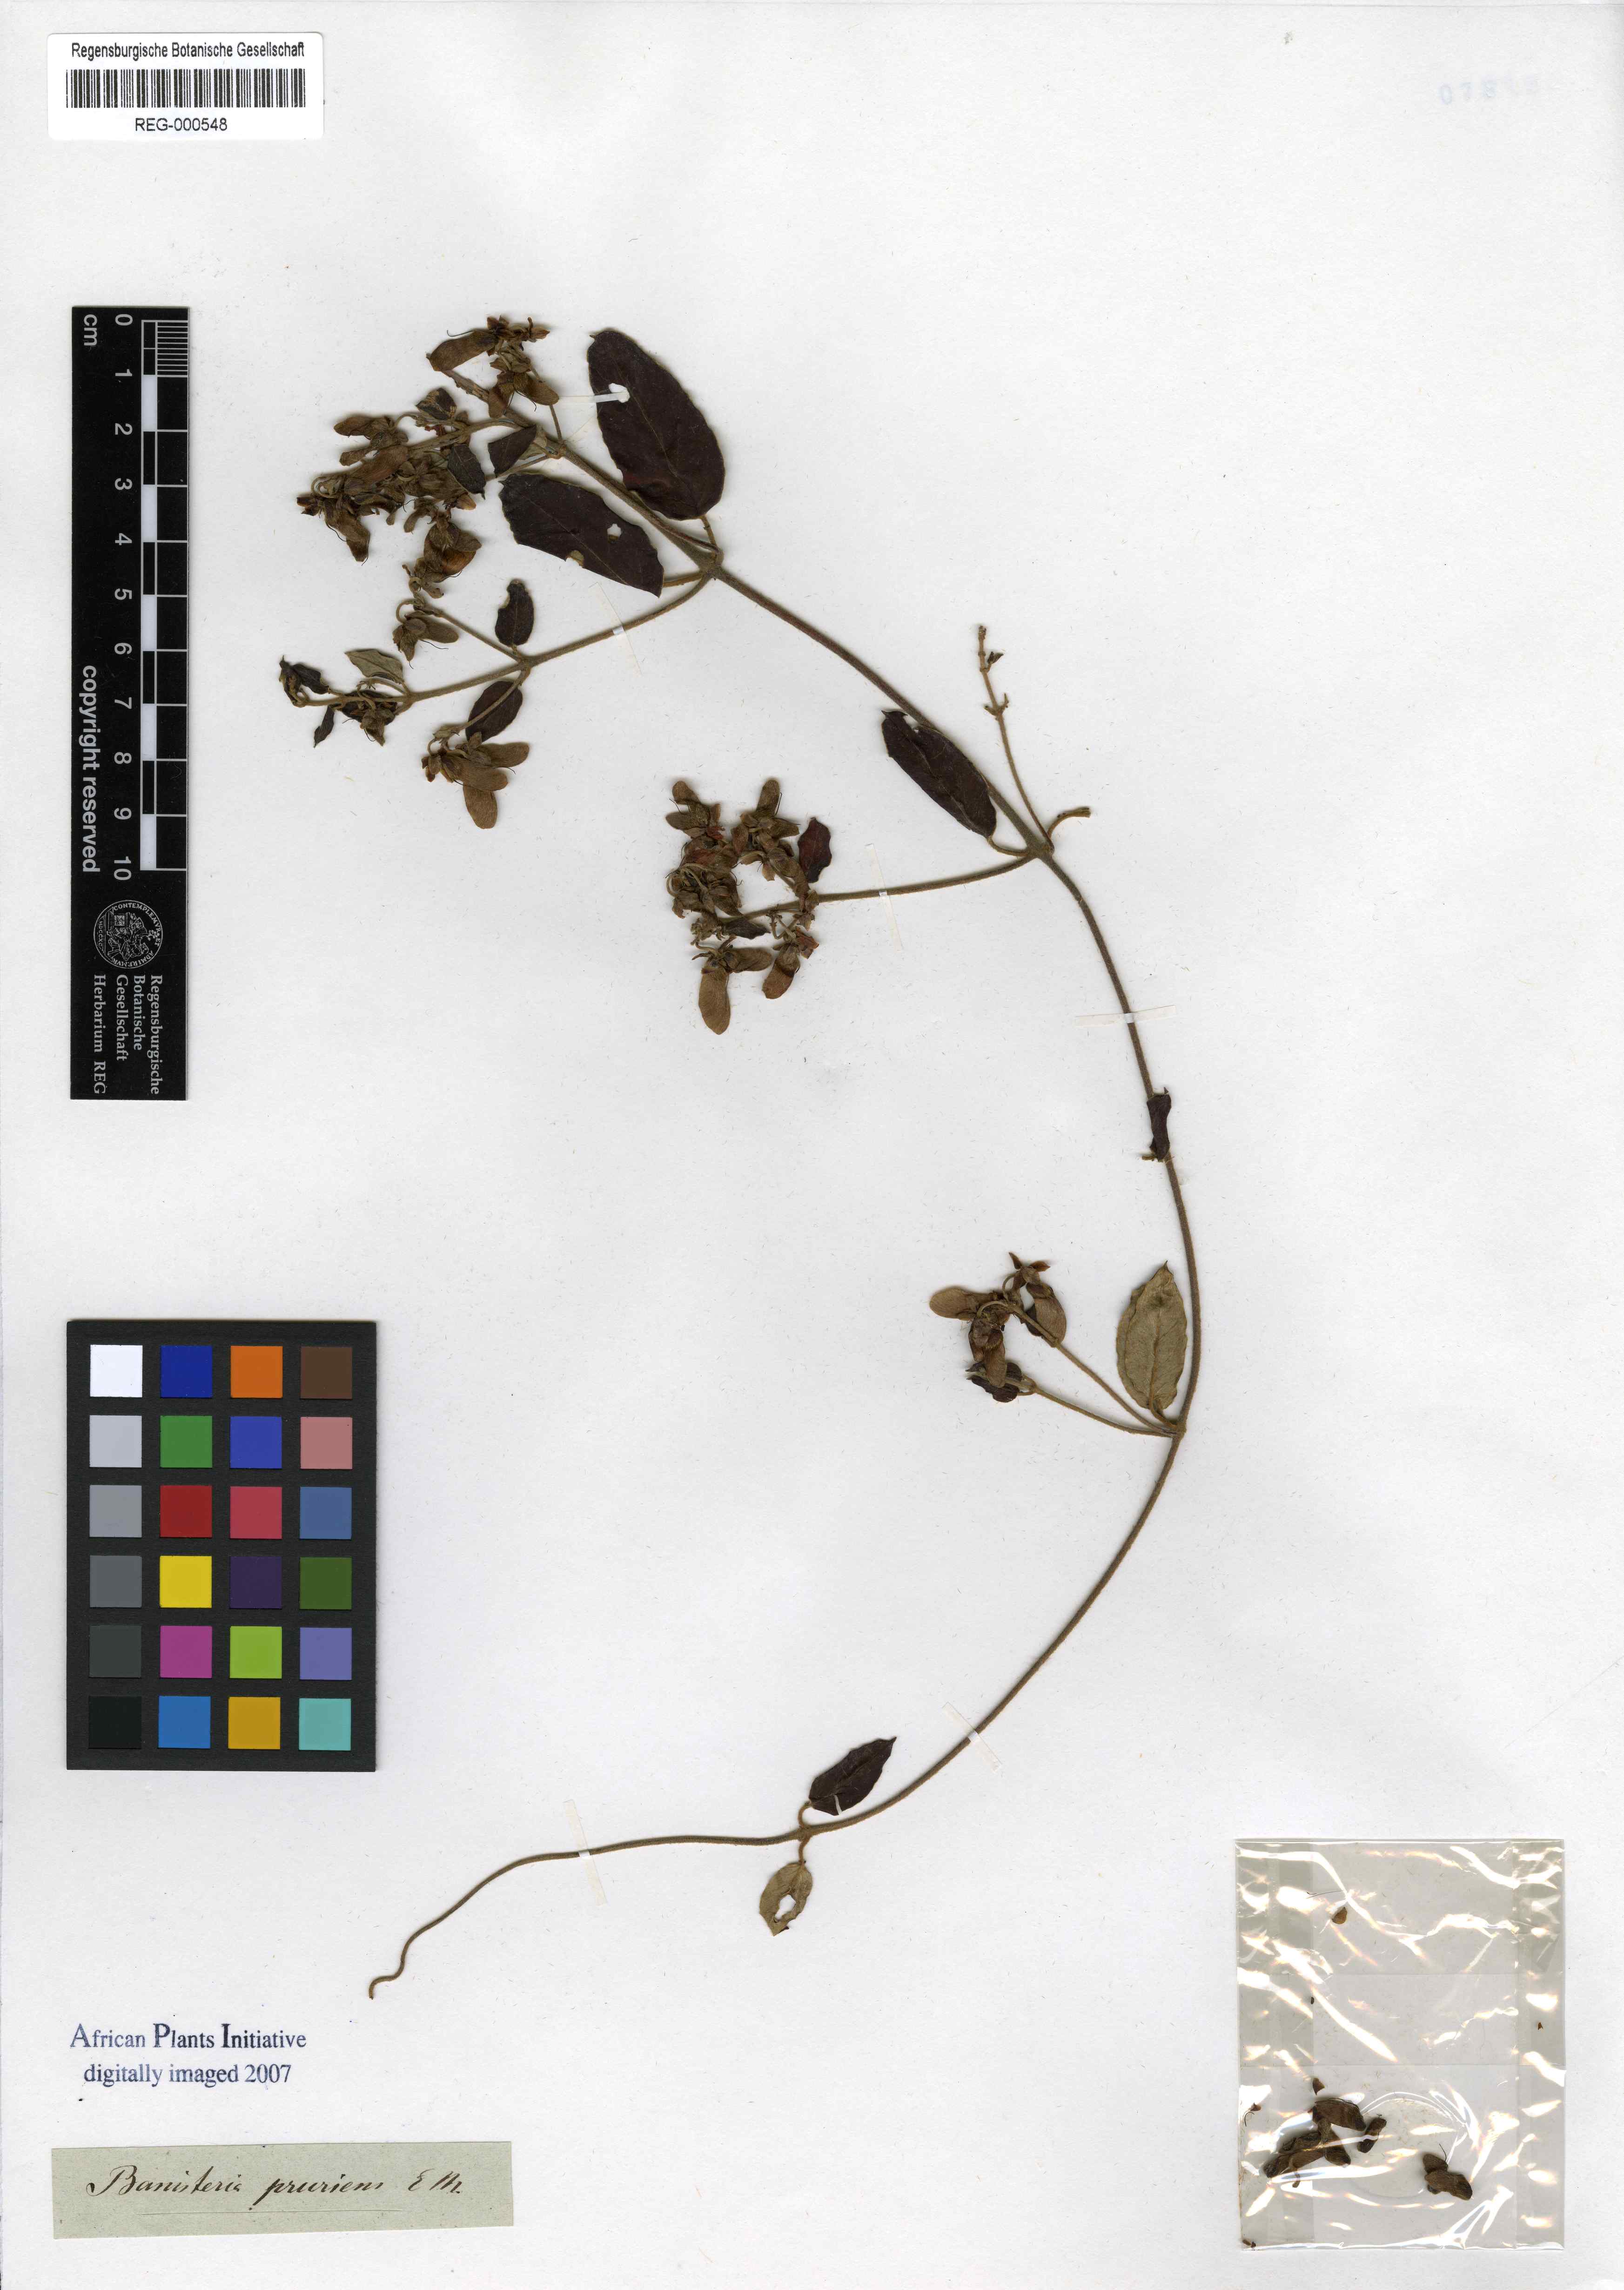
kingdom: Plantae
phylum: Tracheophyta
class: Magnoliopsida
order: Malpighiales
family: Malpighiaceae
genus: Sphedamnocarpus
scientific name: Sphedamnocarpus pruriens
